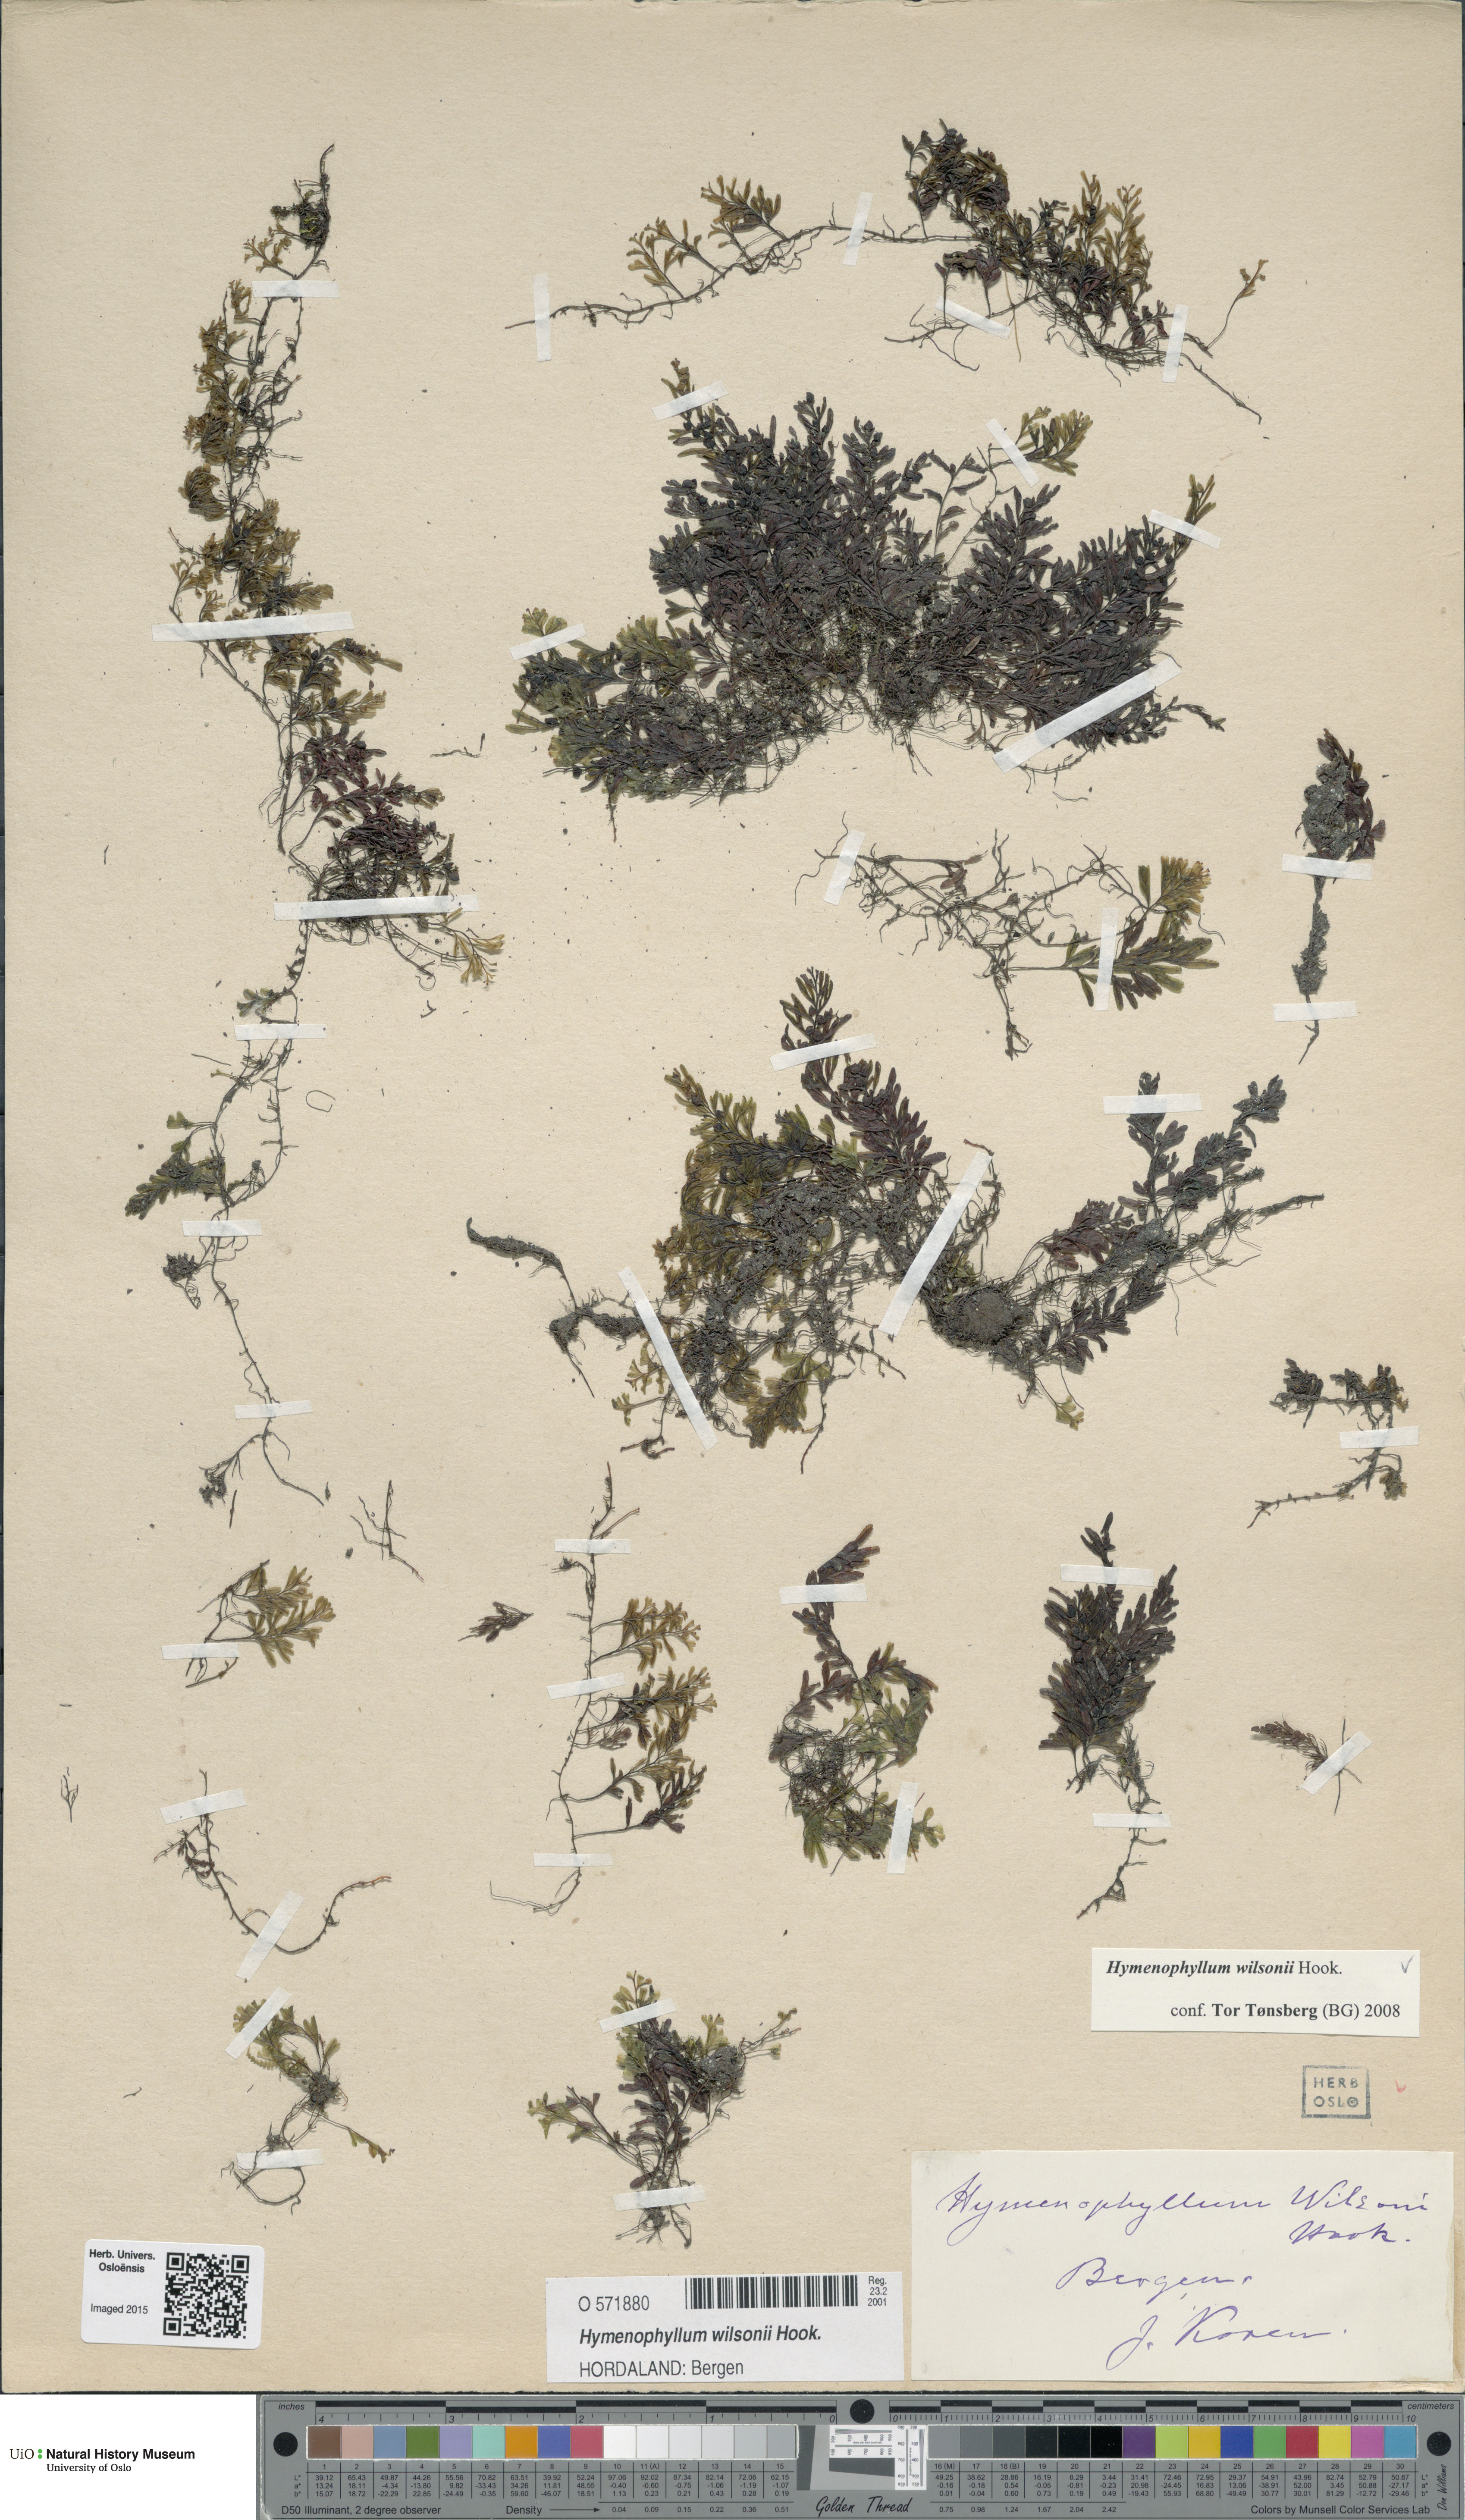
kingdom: Plantae
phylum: Tracheophyta
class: Polypodiopsida
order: Hymenophyllales
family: Hymenophyllaceae
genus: Hymenophyllum
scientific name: Hymenophyllum peltatum
